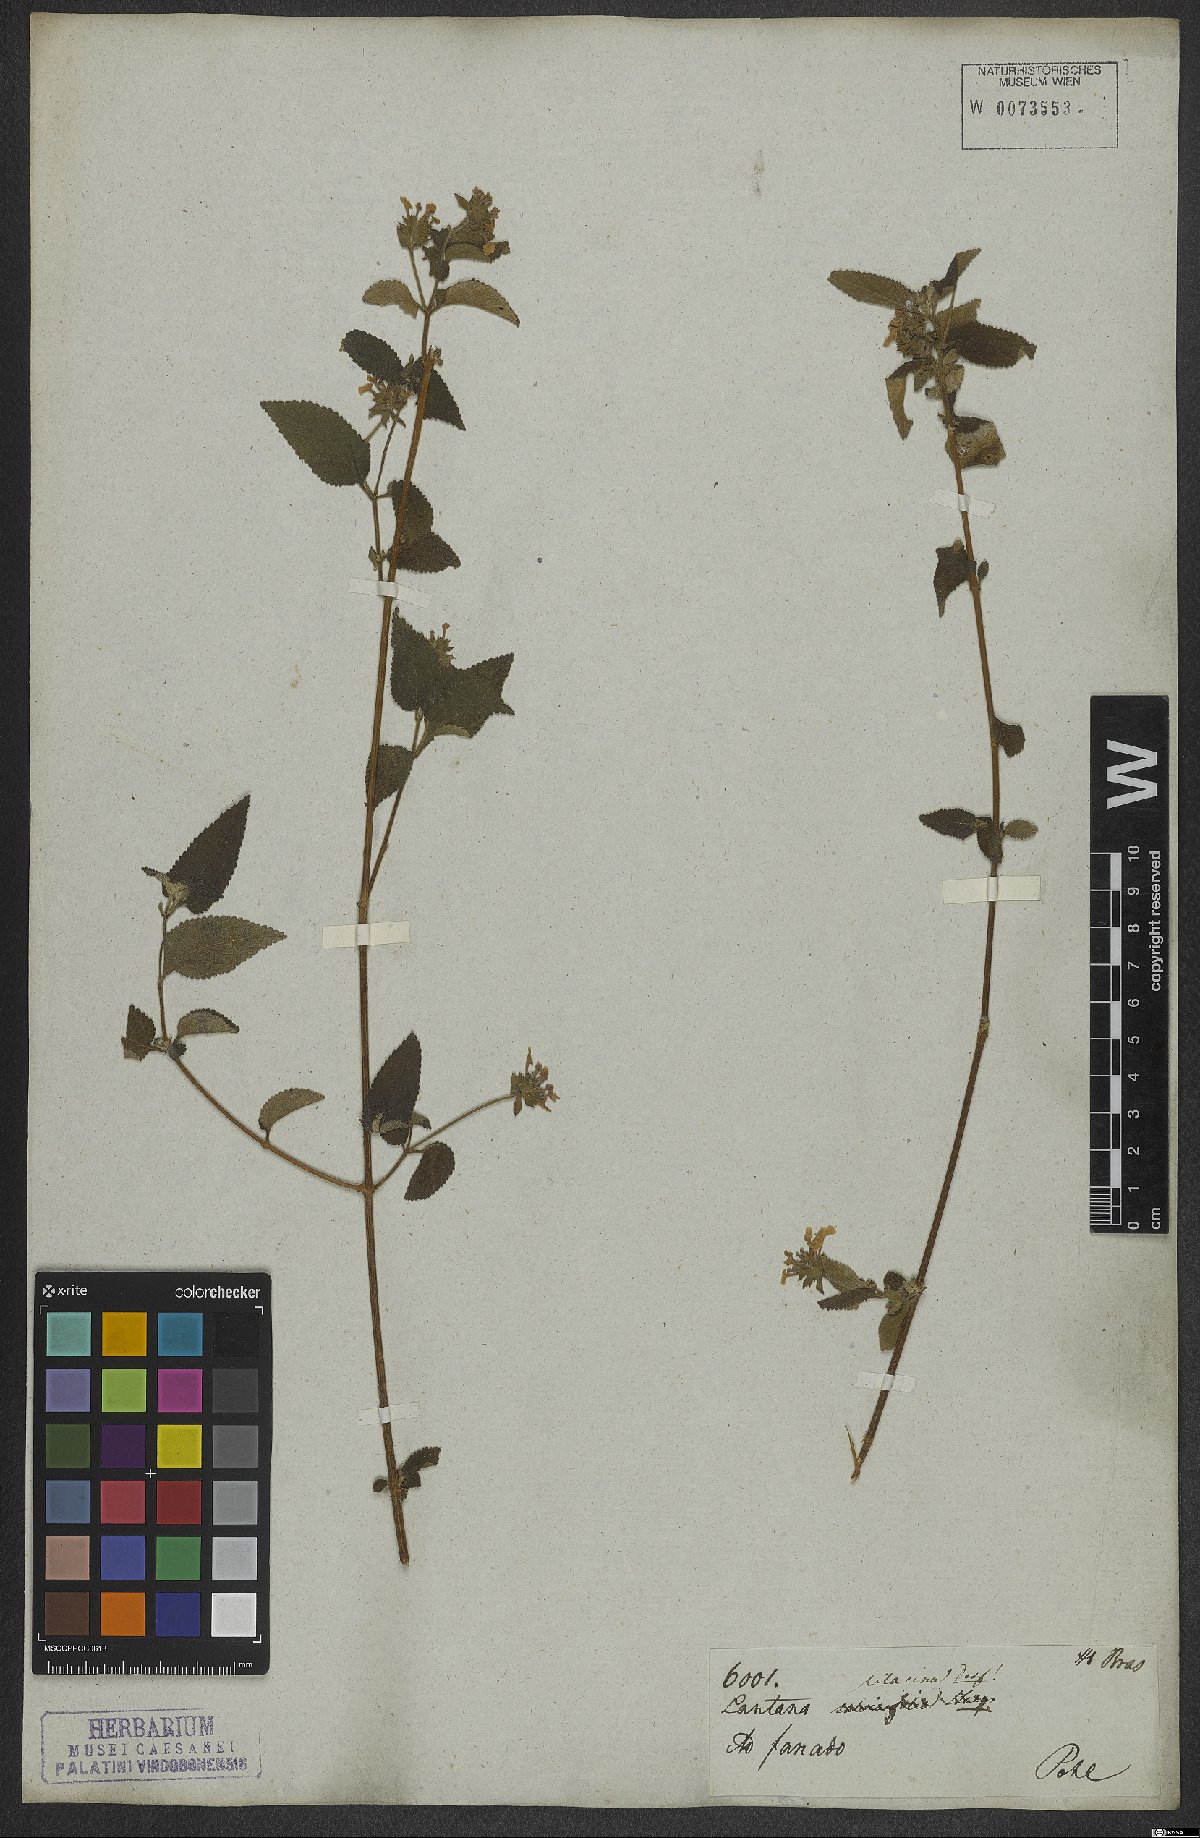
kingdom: Plantae
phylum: Tracheophyta
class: Magnoliopsida
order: Lamiales
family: Verbenaceae
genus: Lantana
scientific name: Lantana fucata
